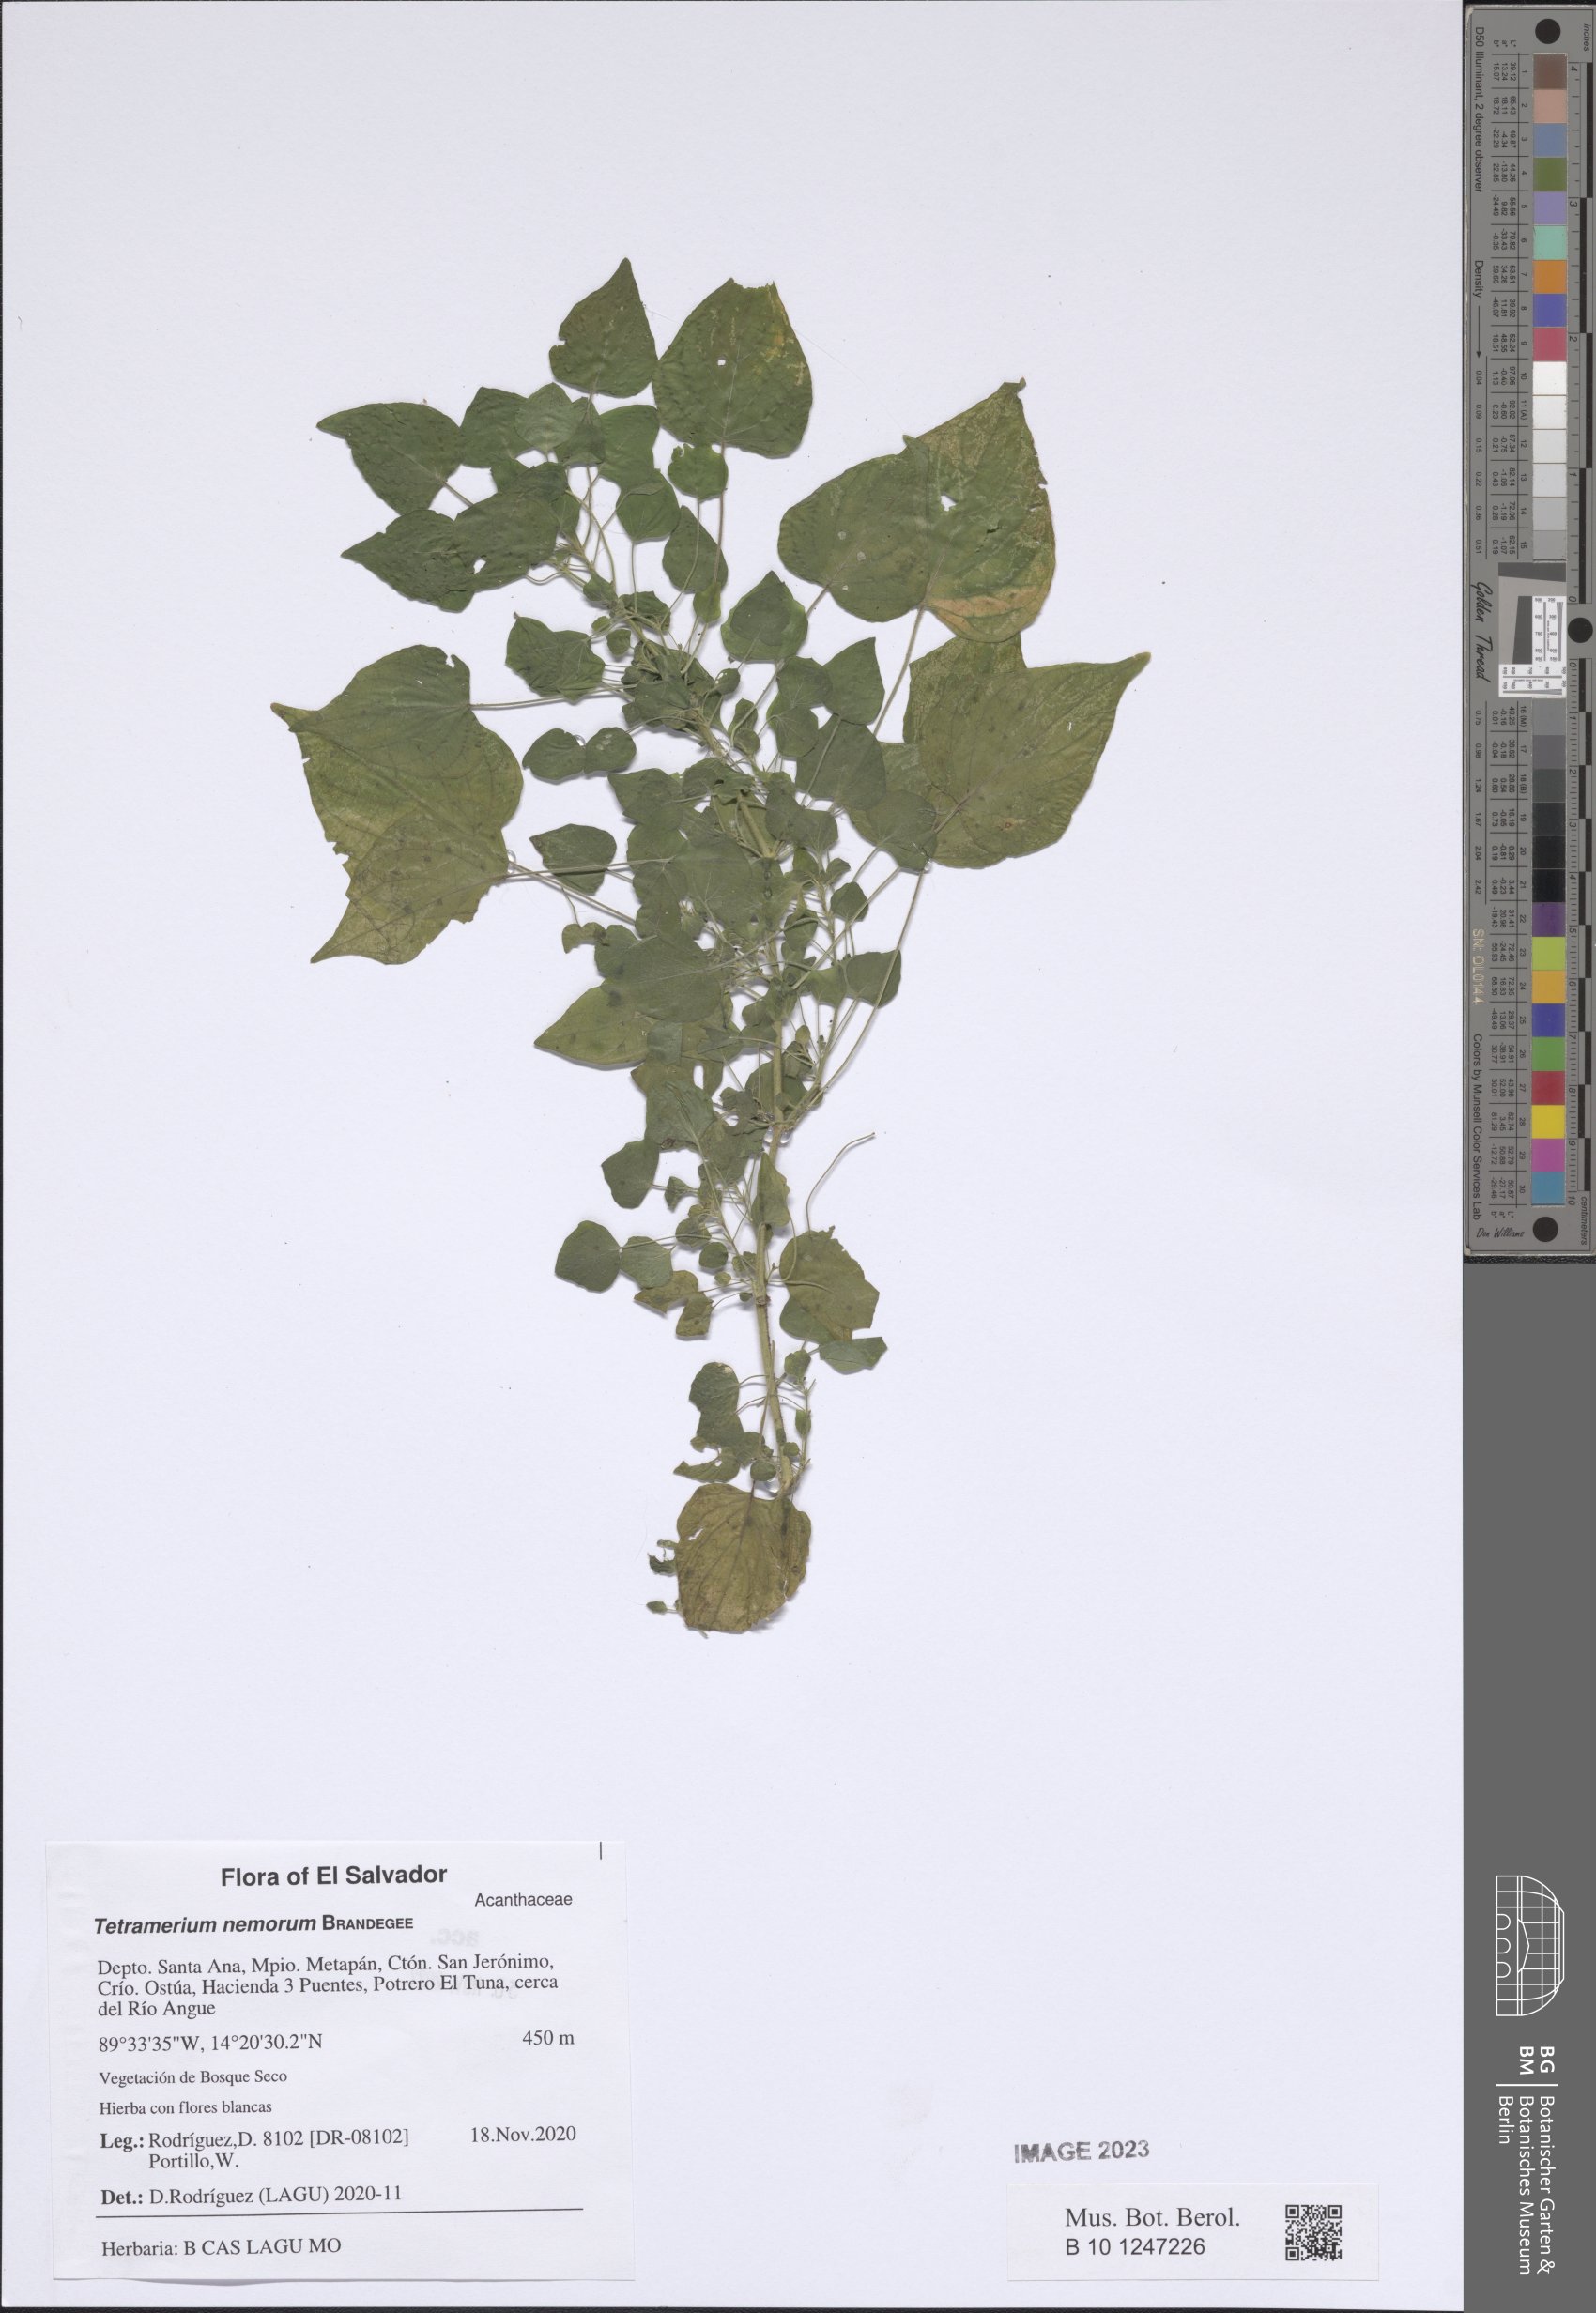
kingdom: Plantae
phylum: Tracheophyta
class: Magnoliopsida
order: Lamiales
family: Acanthaceae
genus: Tetramerium
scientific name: Tetramerium nemorum
